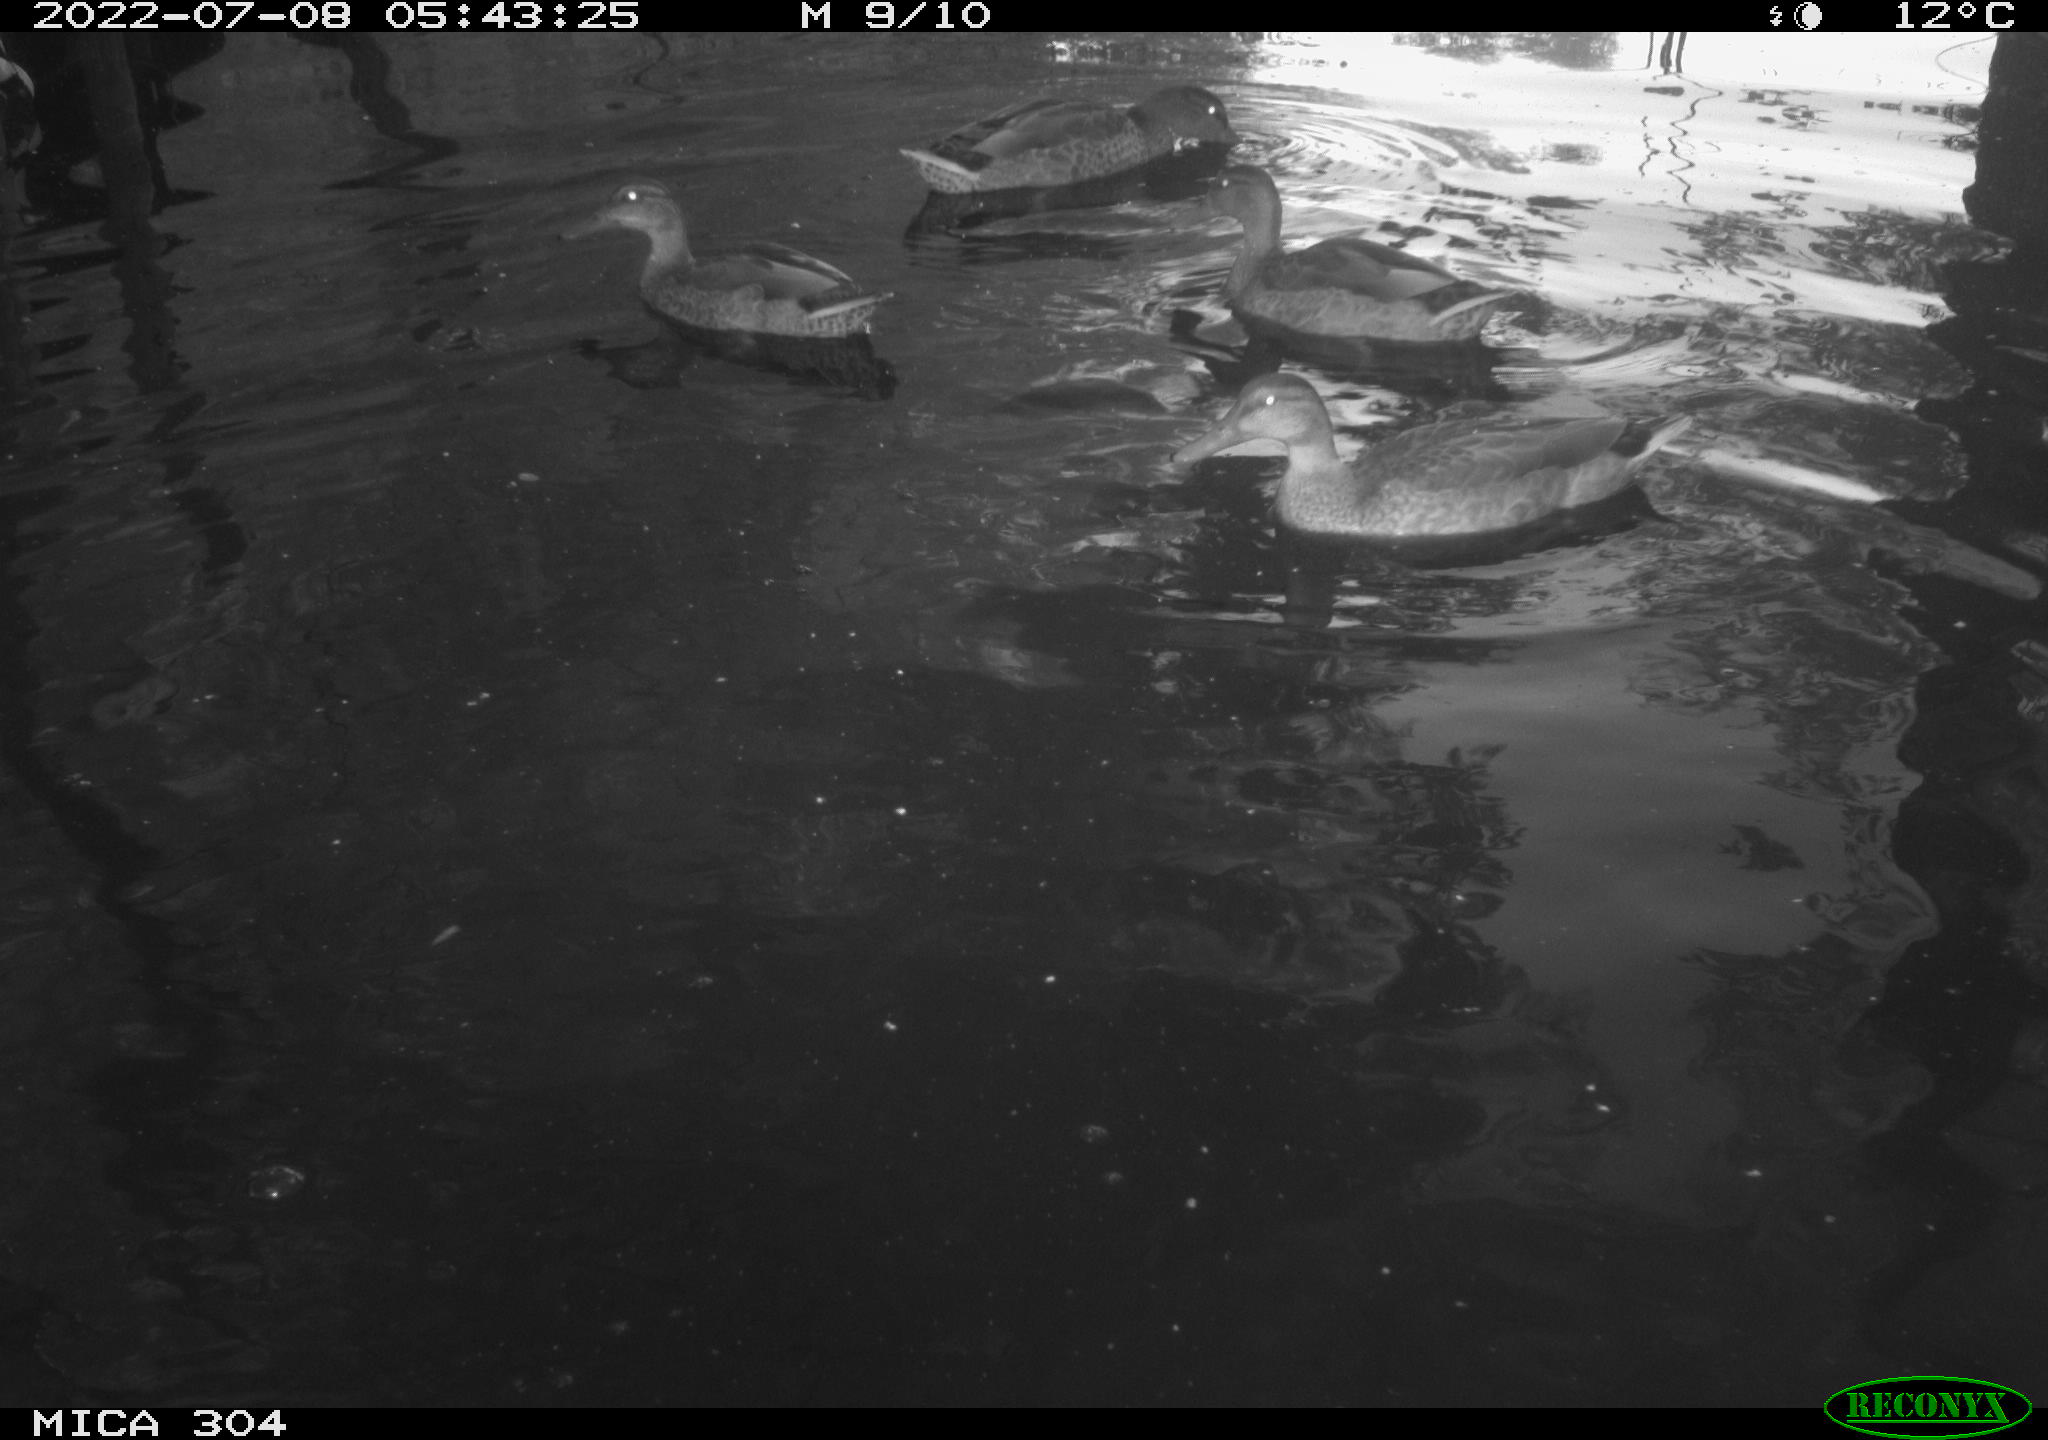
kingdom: Animalia
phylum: Chordata
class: Aves
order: Anseriformes
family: Anatidae
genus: Mareca
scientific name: Mareca strepera
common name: Gadwall
